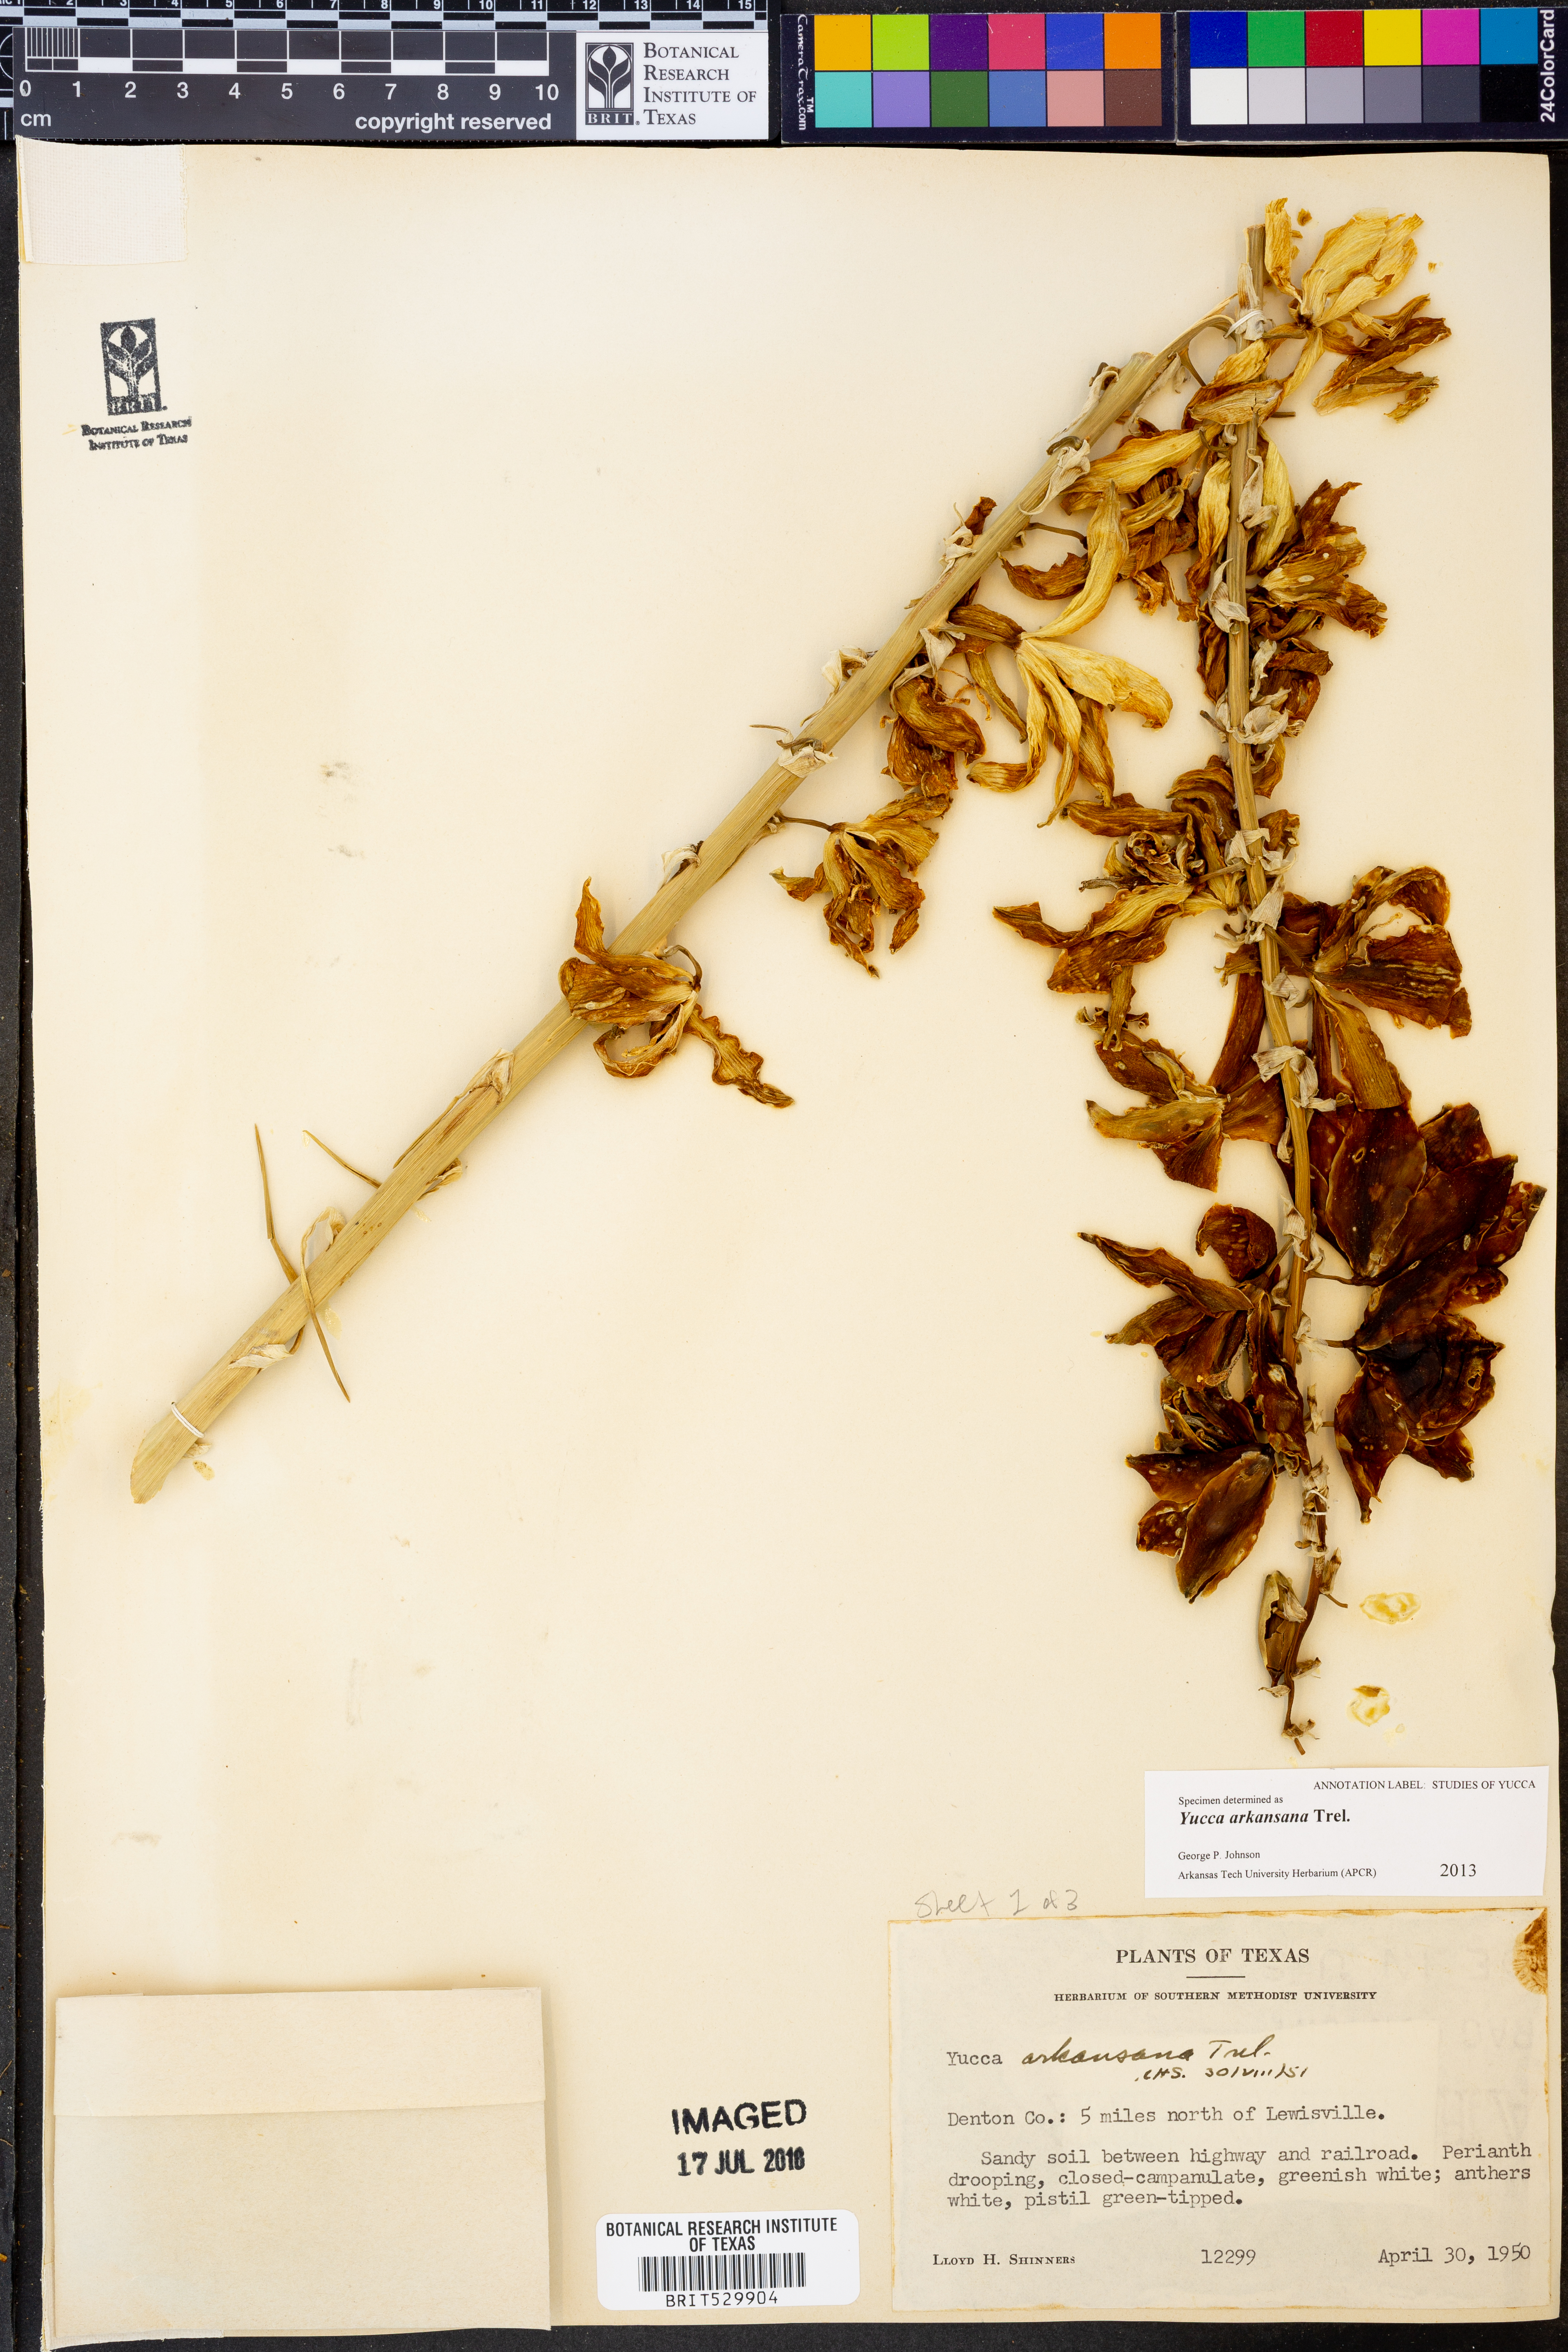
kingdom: Plantae
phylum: Tracheophyta
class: Liliopsida
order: Asparagales
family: Asparagaceae
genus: Yucca
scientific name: Yucca arkansana
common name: Arkansas yucca
